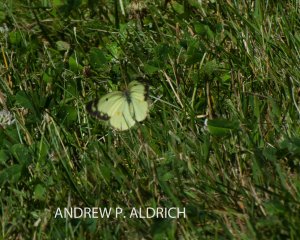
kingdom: Animalia
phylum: Arthropoda
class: Insecta
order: Lepidoptera
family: Pieridae
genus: Colias
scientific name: Colias philodice
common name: Clouded Sulphur
